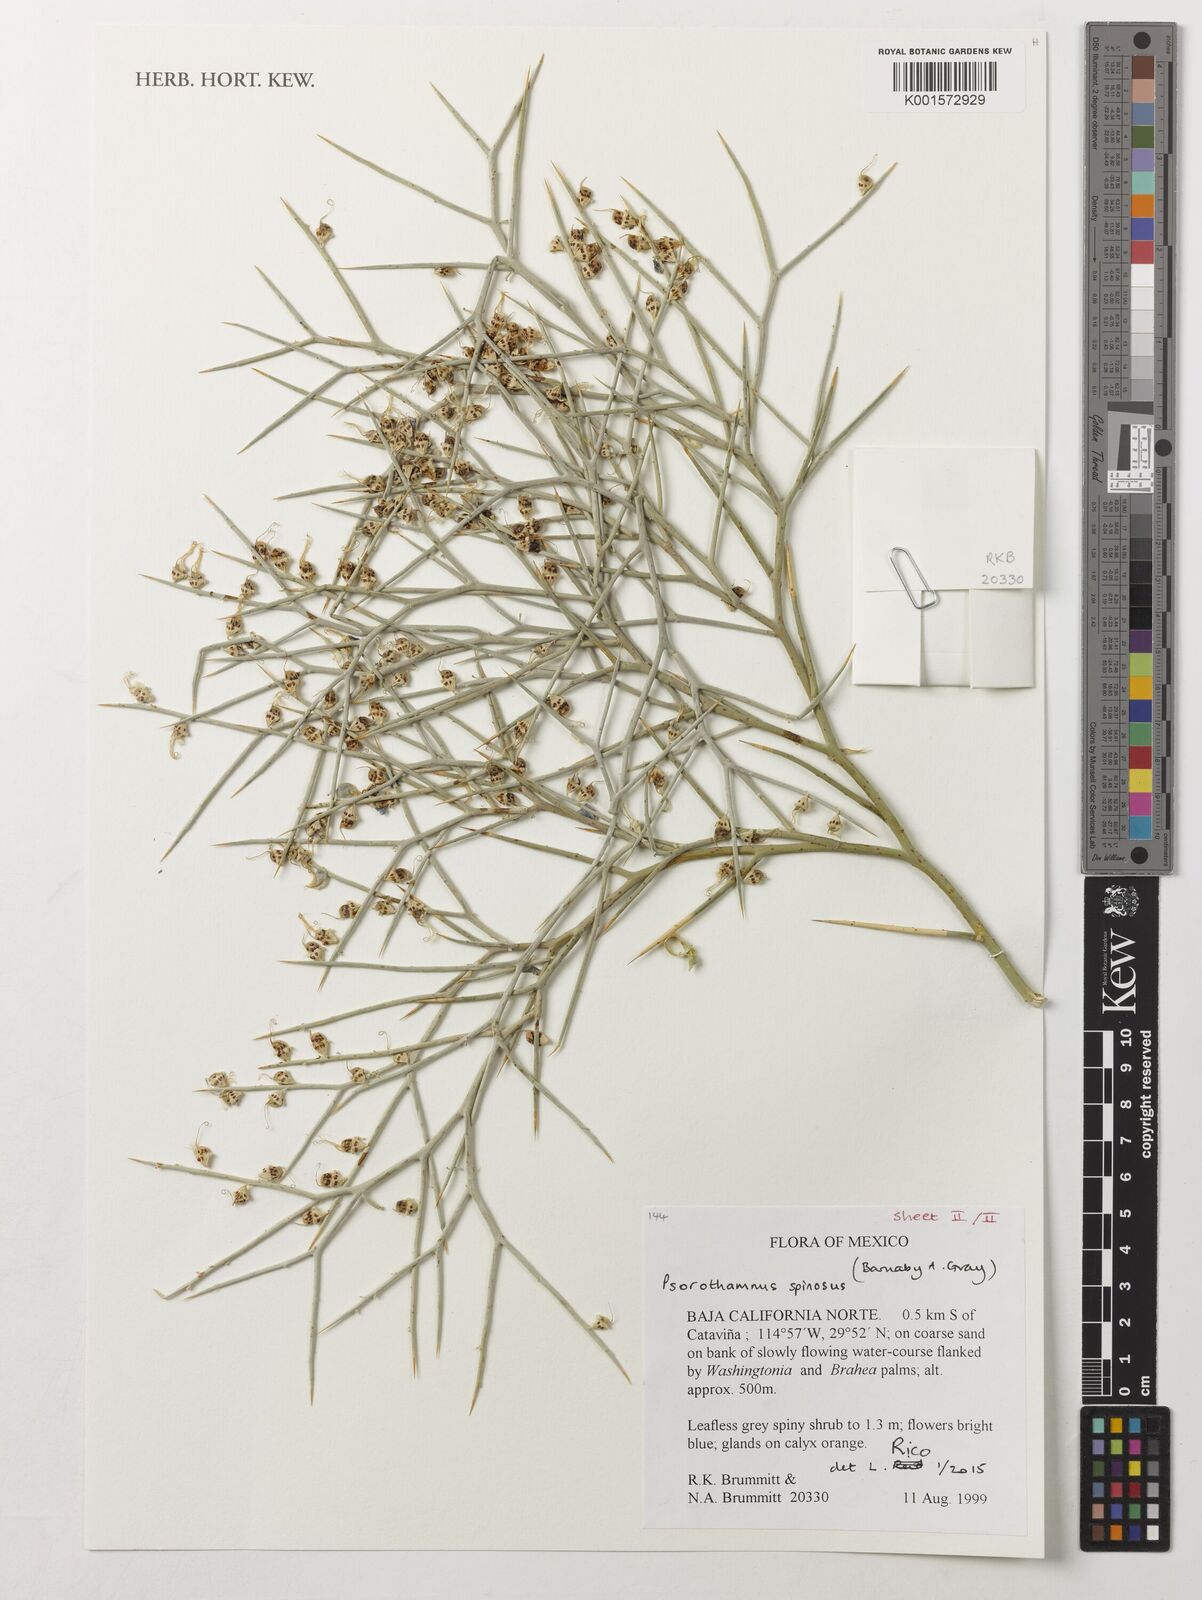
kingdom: Plantae
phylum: Tracheophyta
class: Magnoliopsida
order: Fabales
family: Fabaceae
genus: Psorothamnus
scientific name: Psorothamnus spinosus
